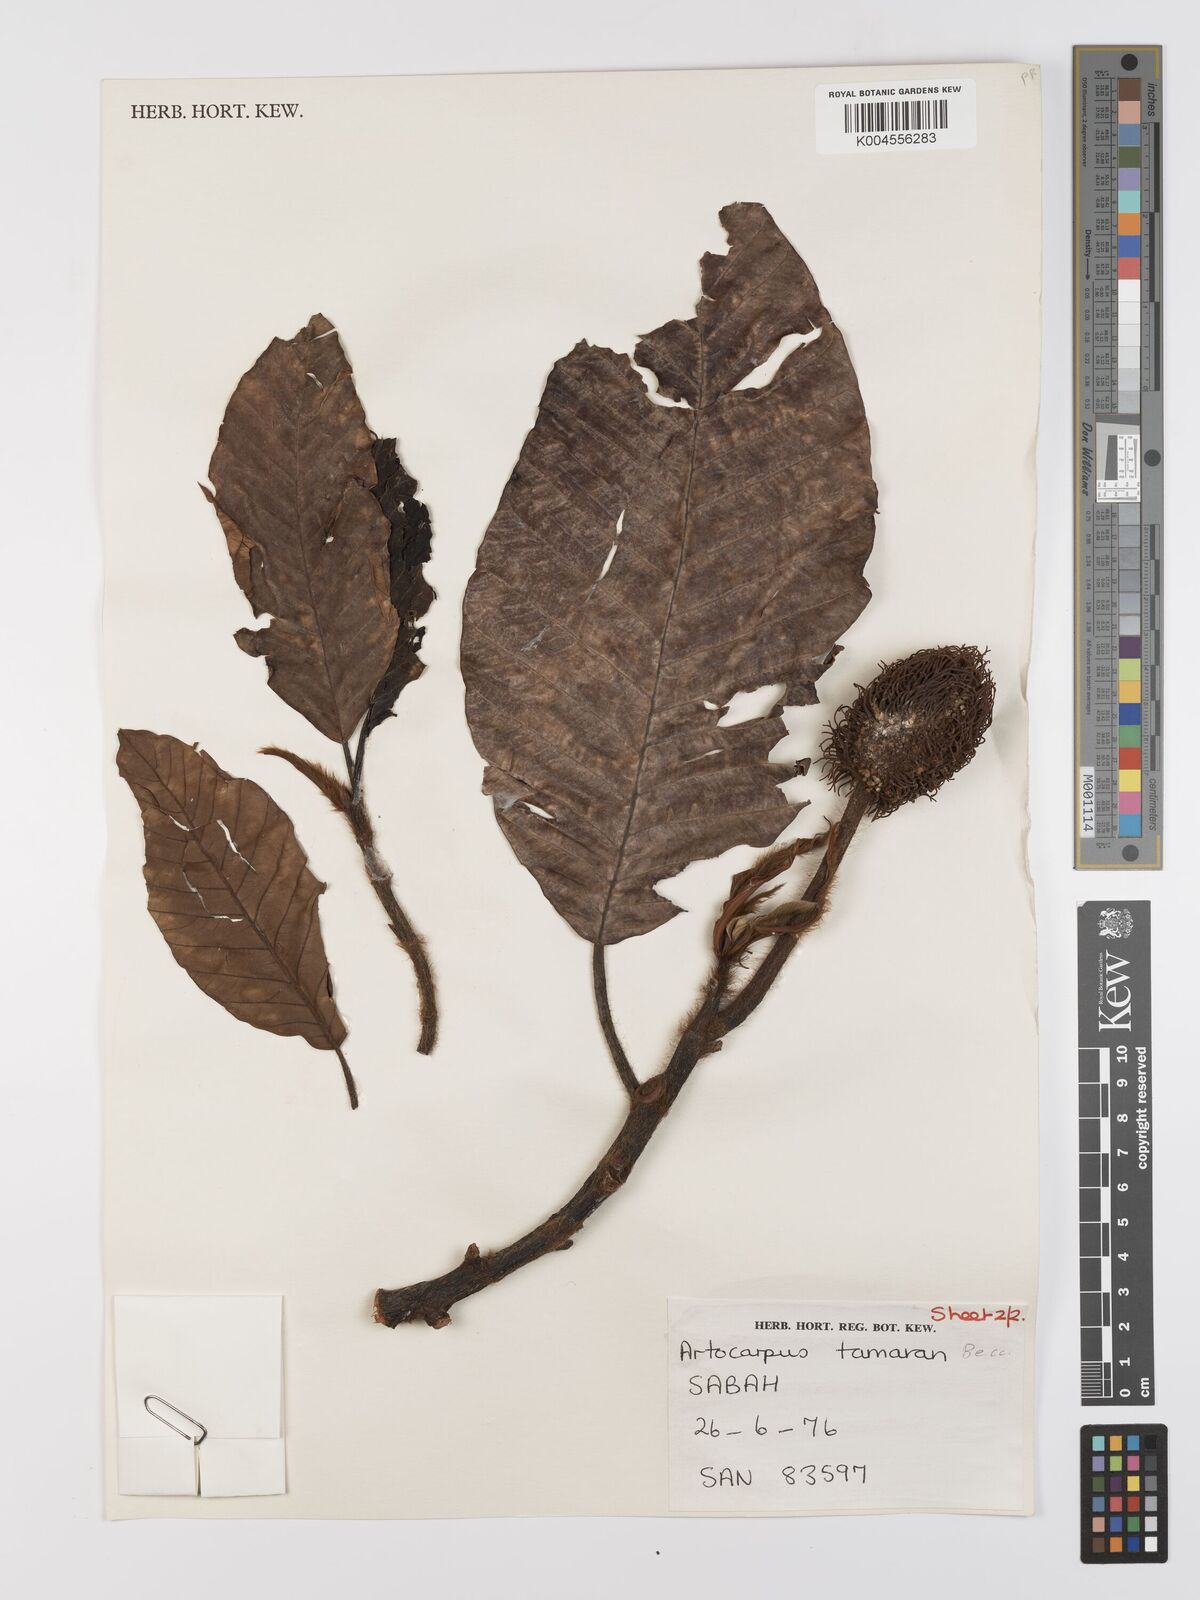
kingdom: Plantae
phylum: Tracheophyta
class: Magnoliopsida
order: Rosales
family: Moraceae
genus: Artocarpus
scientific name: Artocarpus tamaran
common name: Elephant jack
